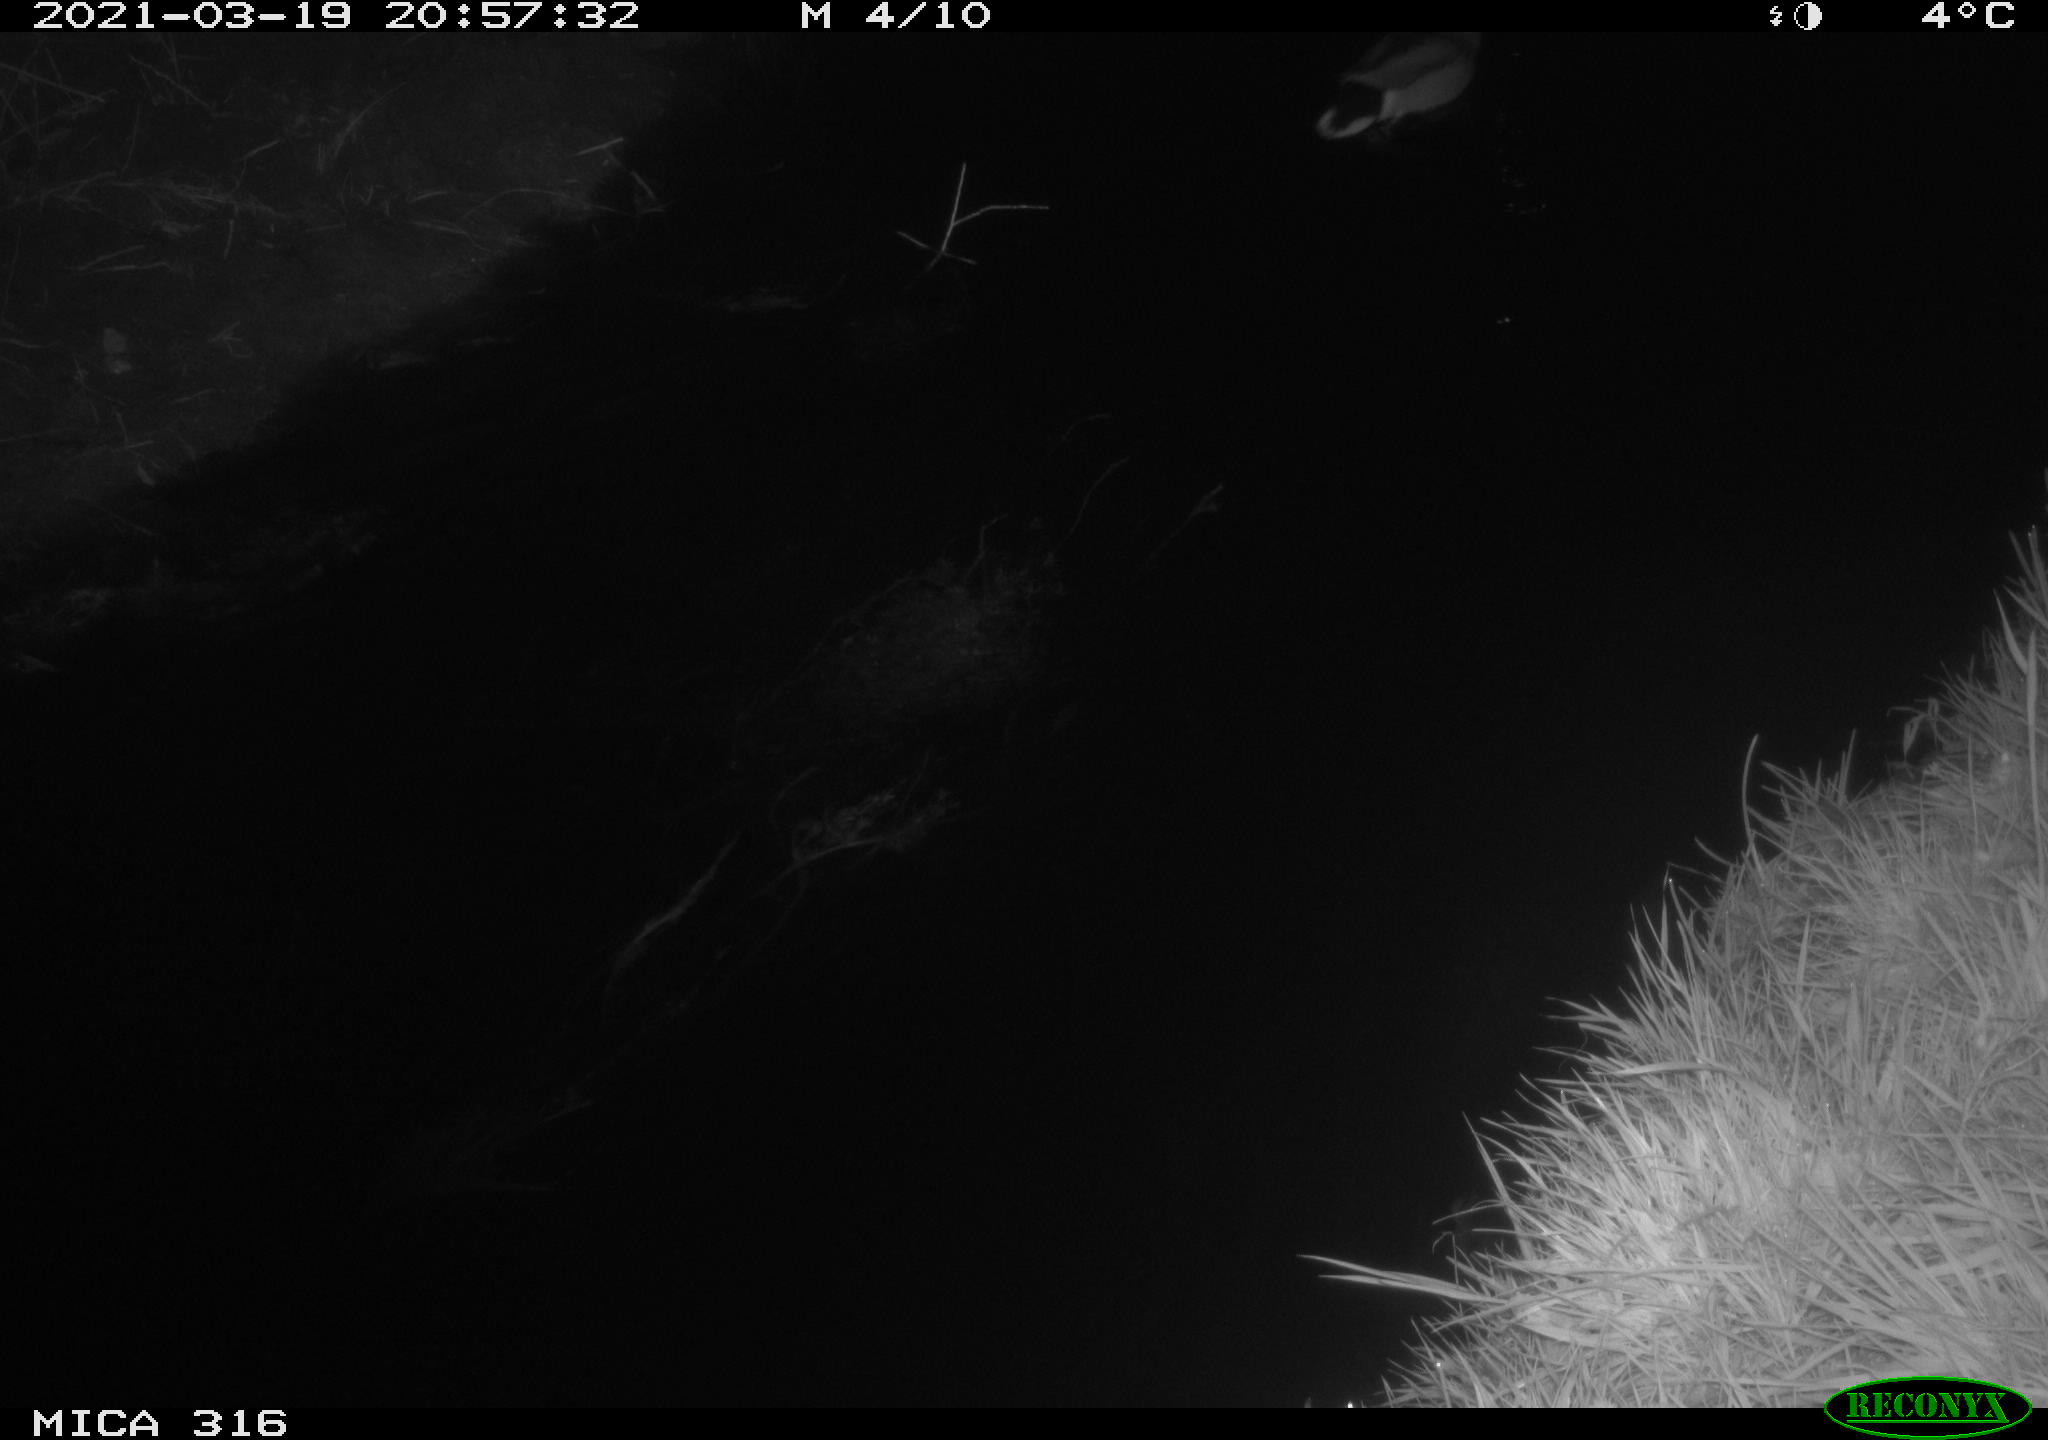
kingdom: Animalia
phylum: Chordata
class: Aves
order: Anseriformes
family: Anatidae
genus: Anas
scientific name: Anas platyrhynchos
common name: Mallard
